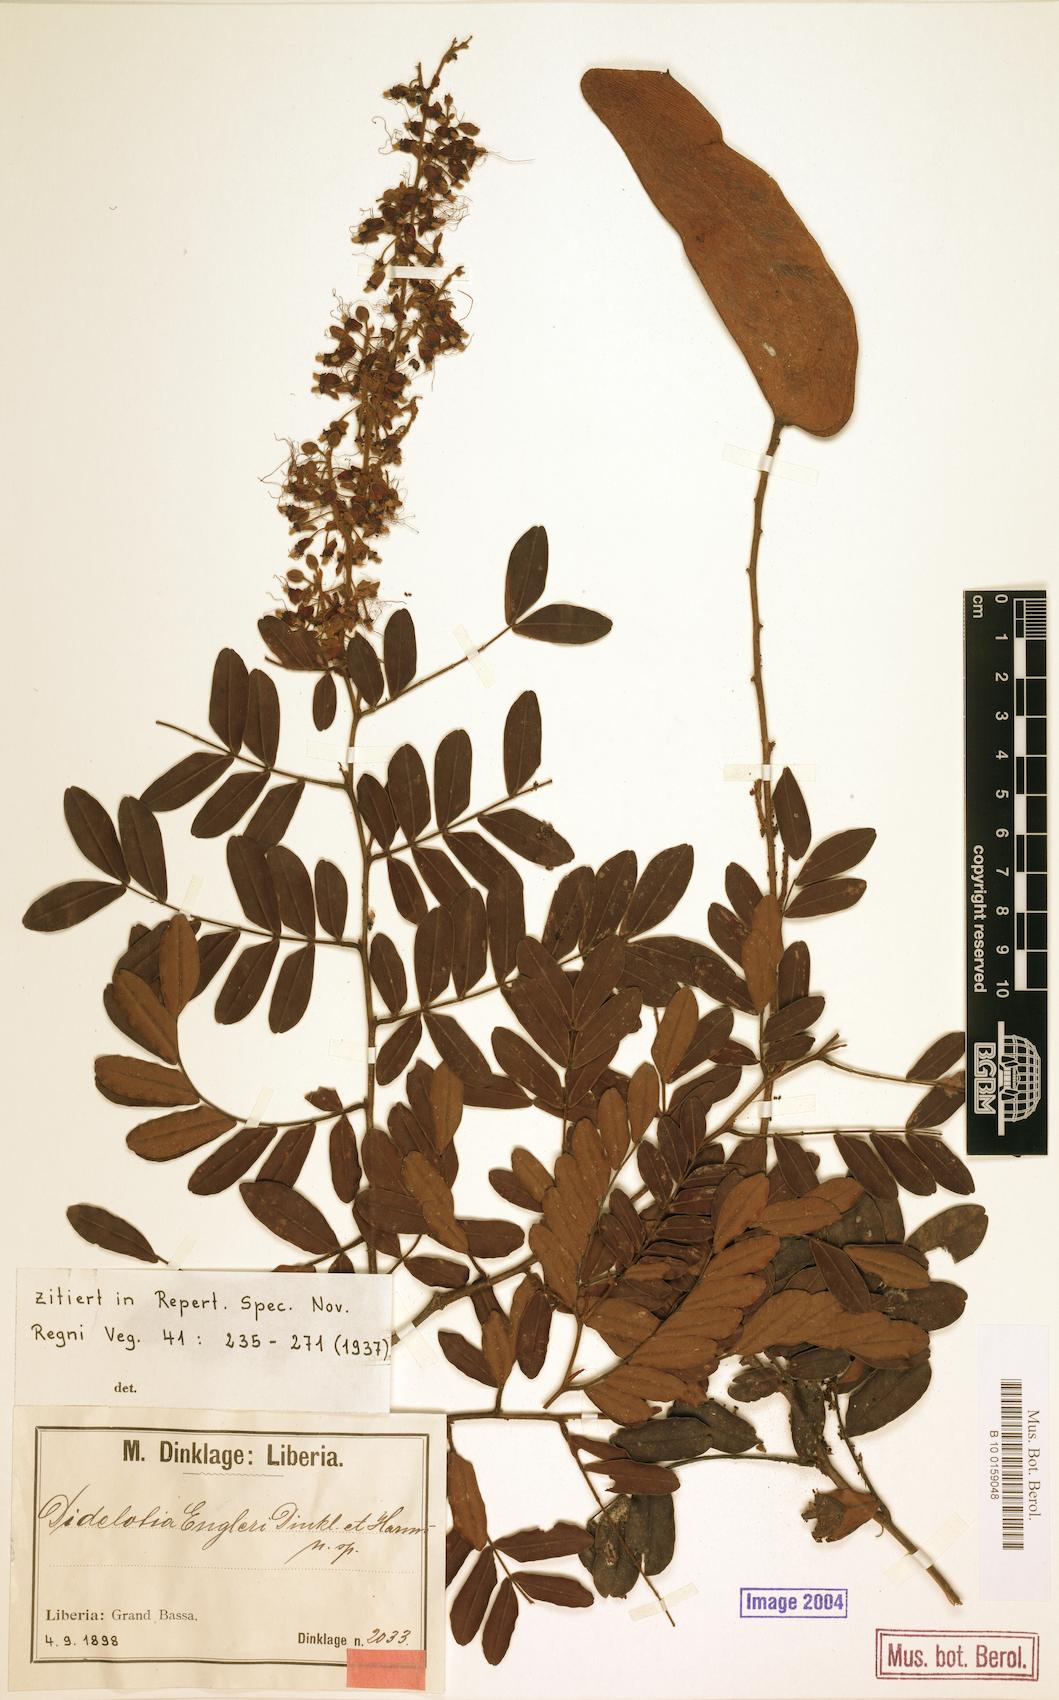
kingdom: Plantae
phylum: Tracheophyta
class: Magnoliopsida
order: Fabales
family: Fabaceae
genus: Didelotia
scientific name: Didelotia engleri
